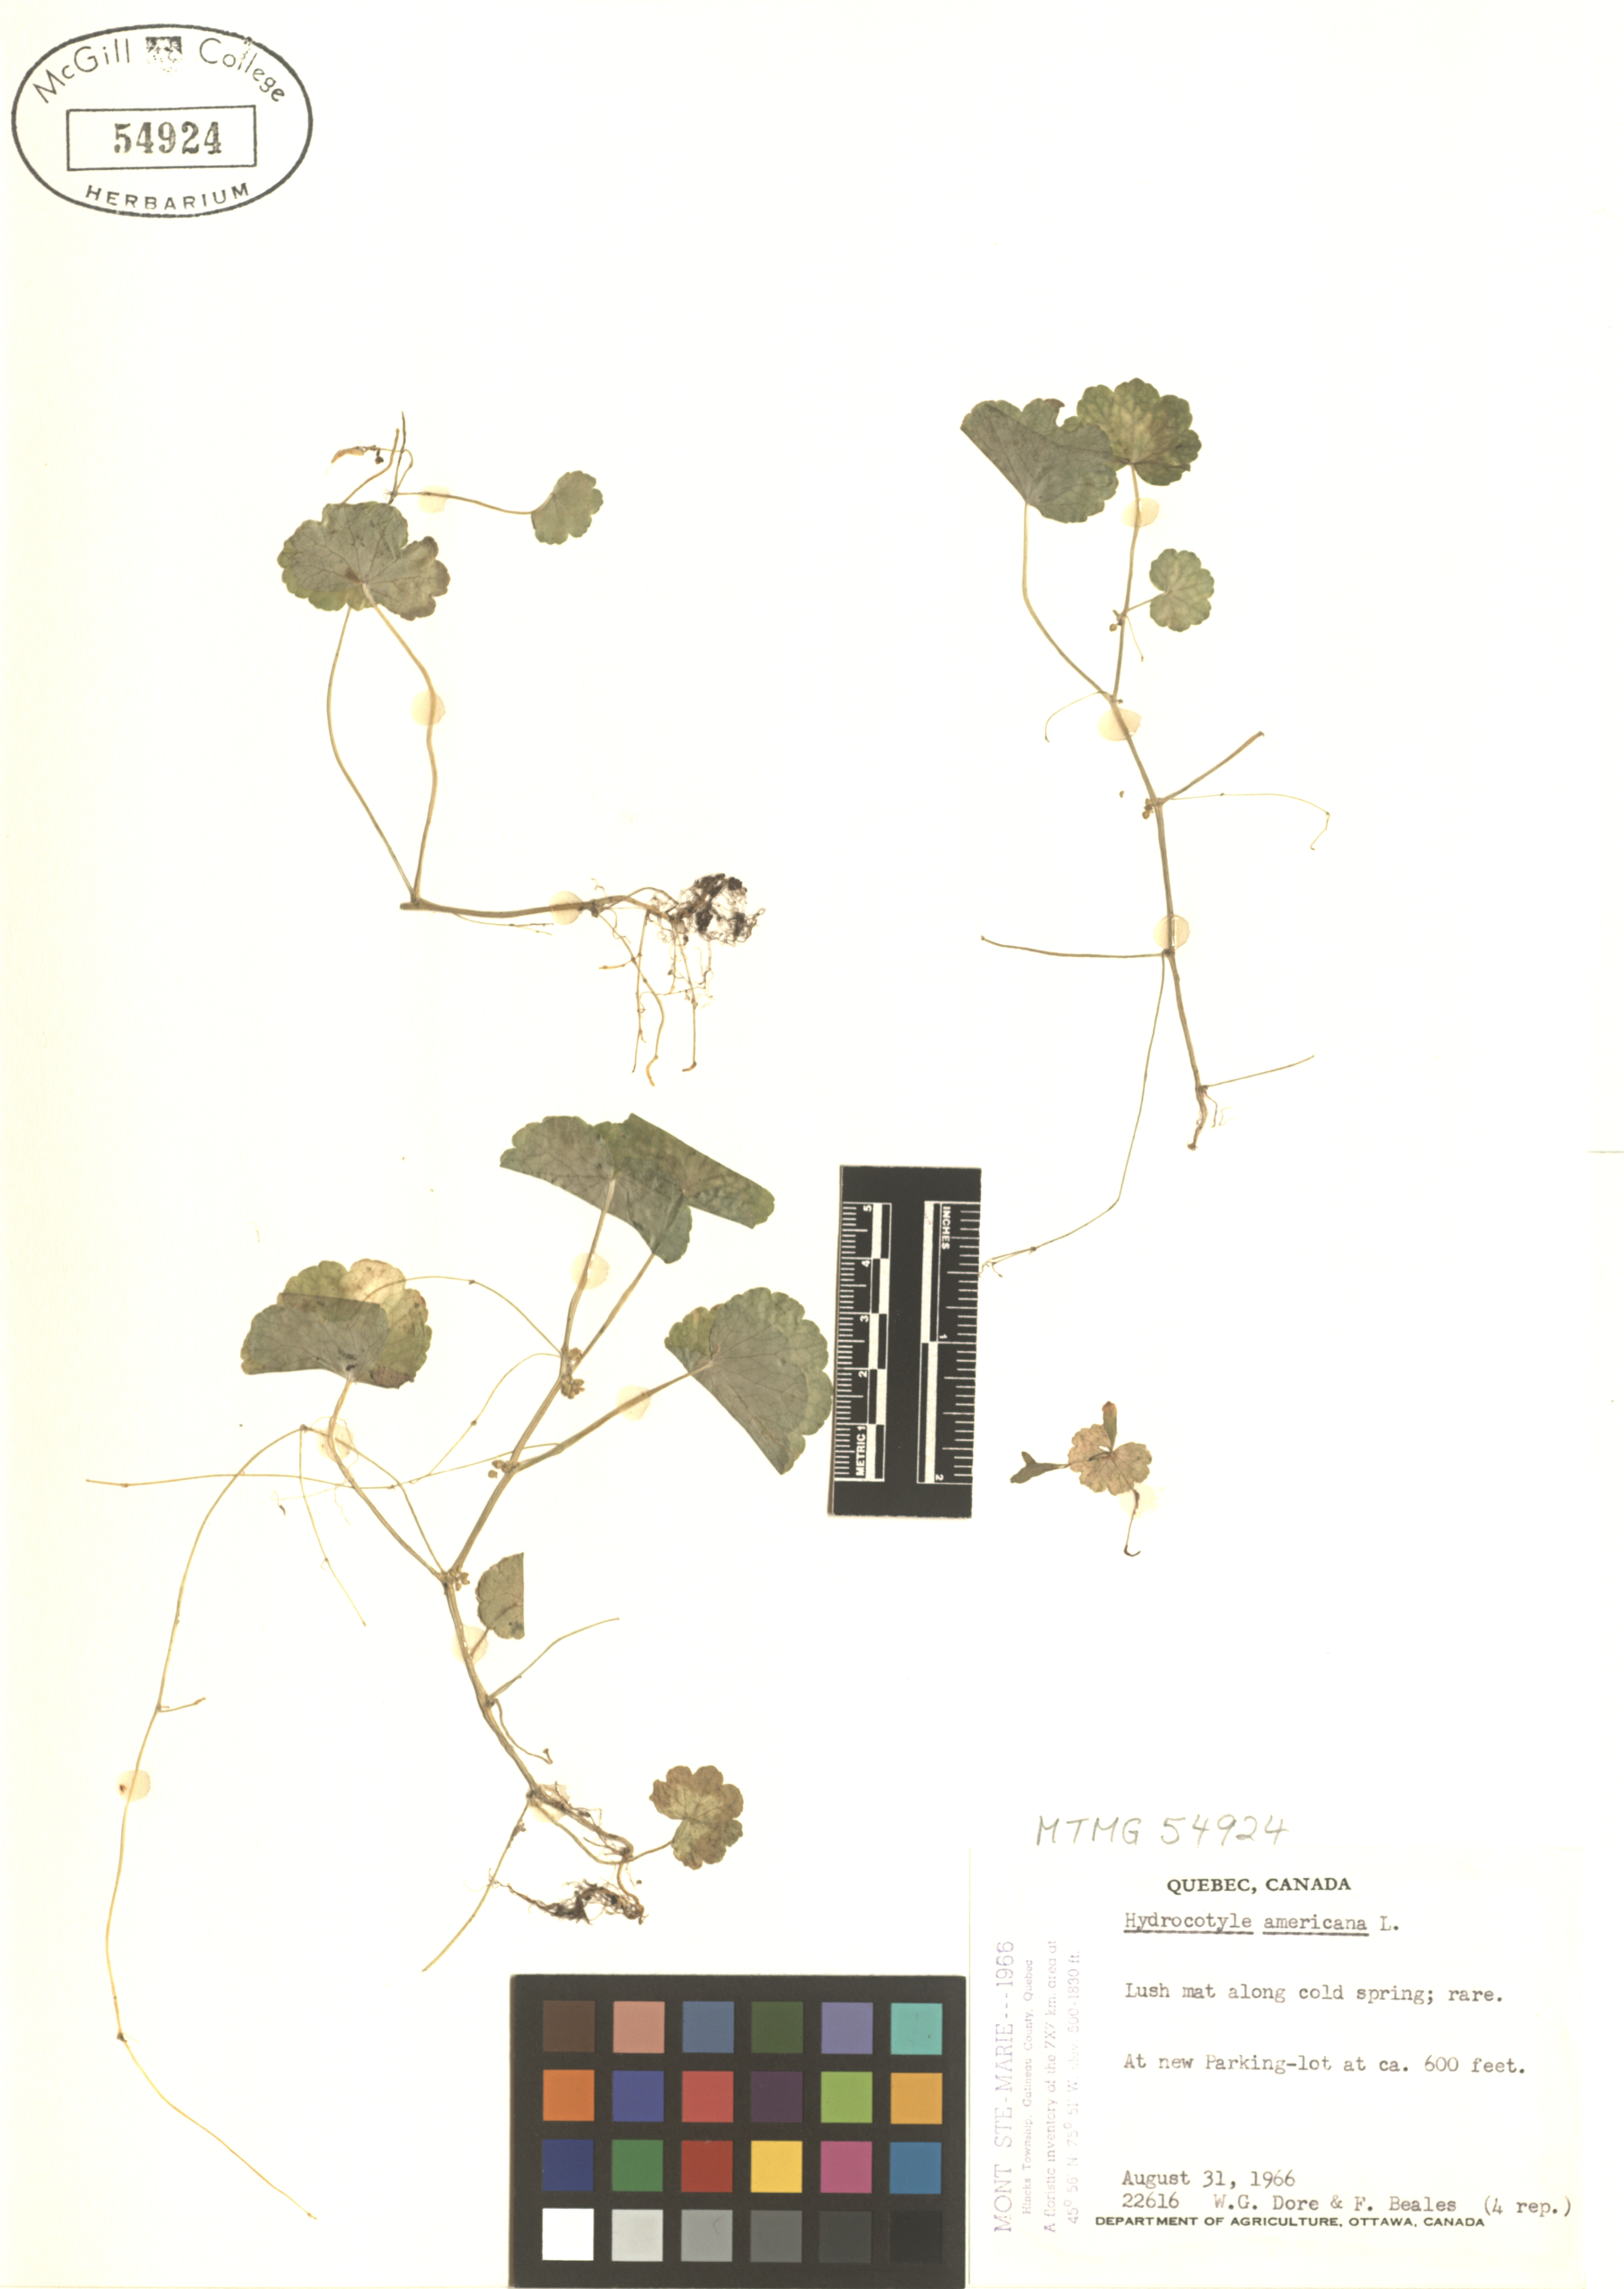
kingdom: Plantae
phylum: Tracheophyta
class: Magnoliopsida
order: Apiales
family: Araliaceae
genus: Hydrocotyle
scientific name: Hydrocotyle americana
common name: American water-pennywort
